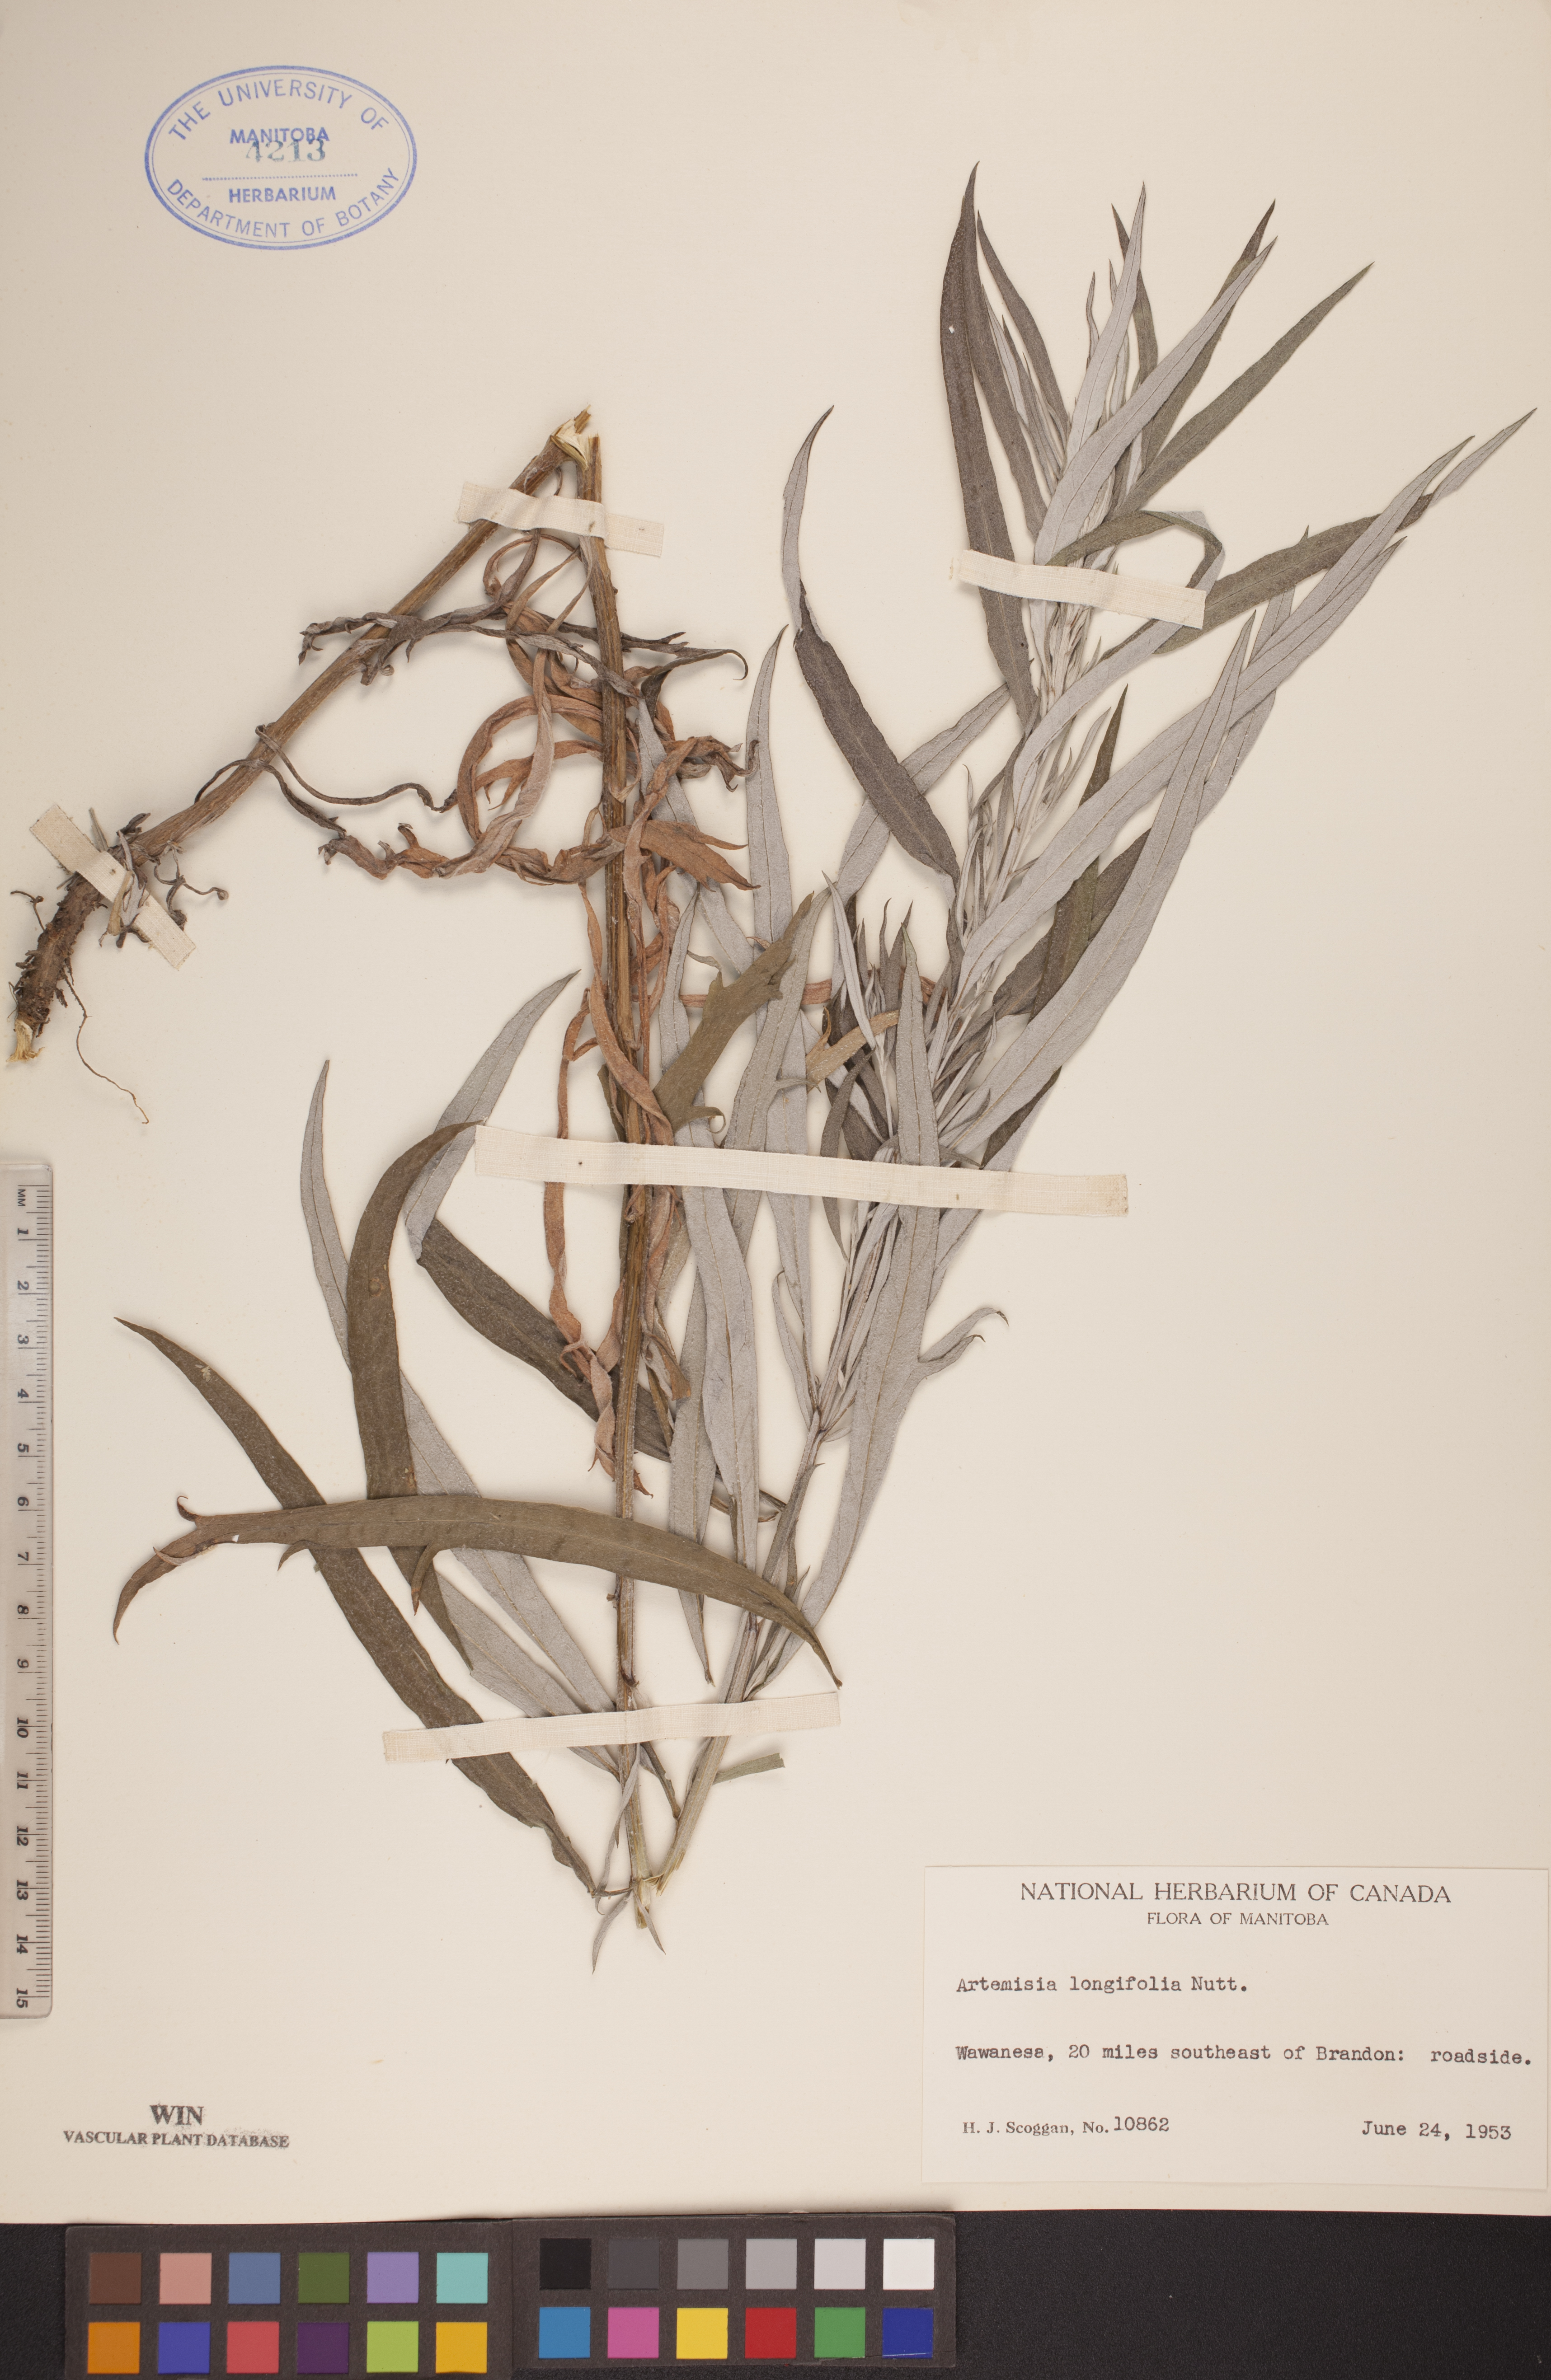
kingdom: Plantae
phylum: Tracheophyta
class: Magnoliopsida
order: Asterales
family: Asteraceae
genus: Artemisia
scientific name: Artemisia longifolia
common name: Long-leaved mugwort
